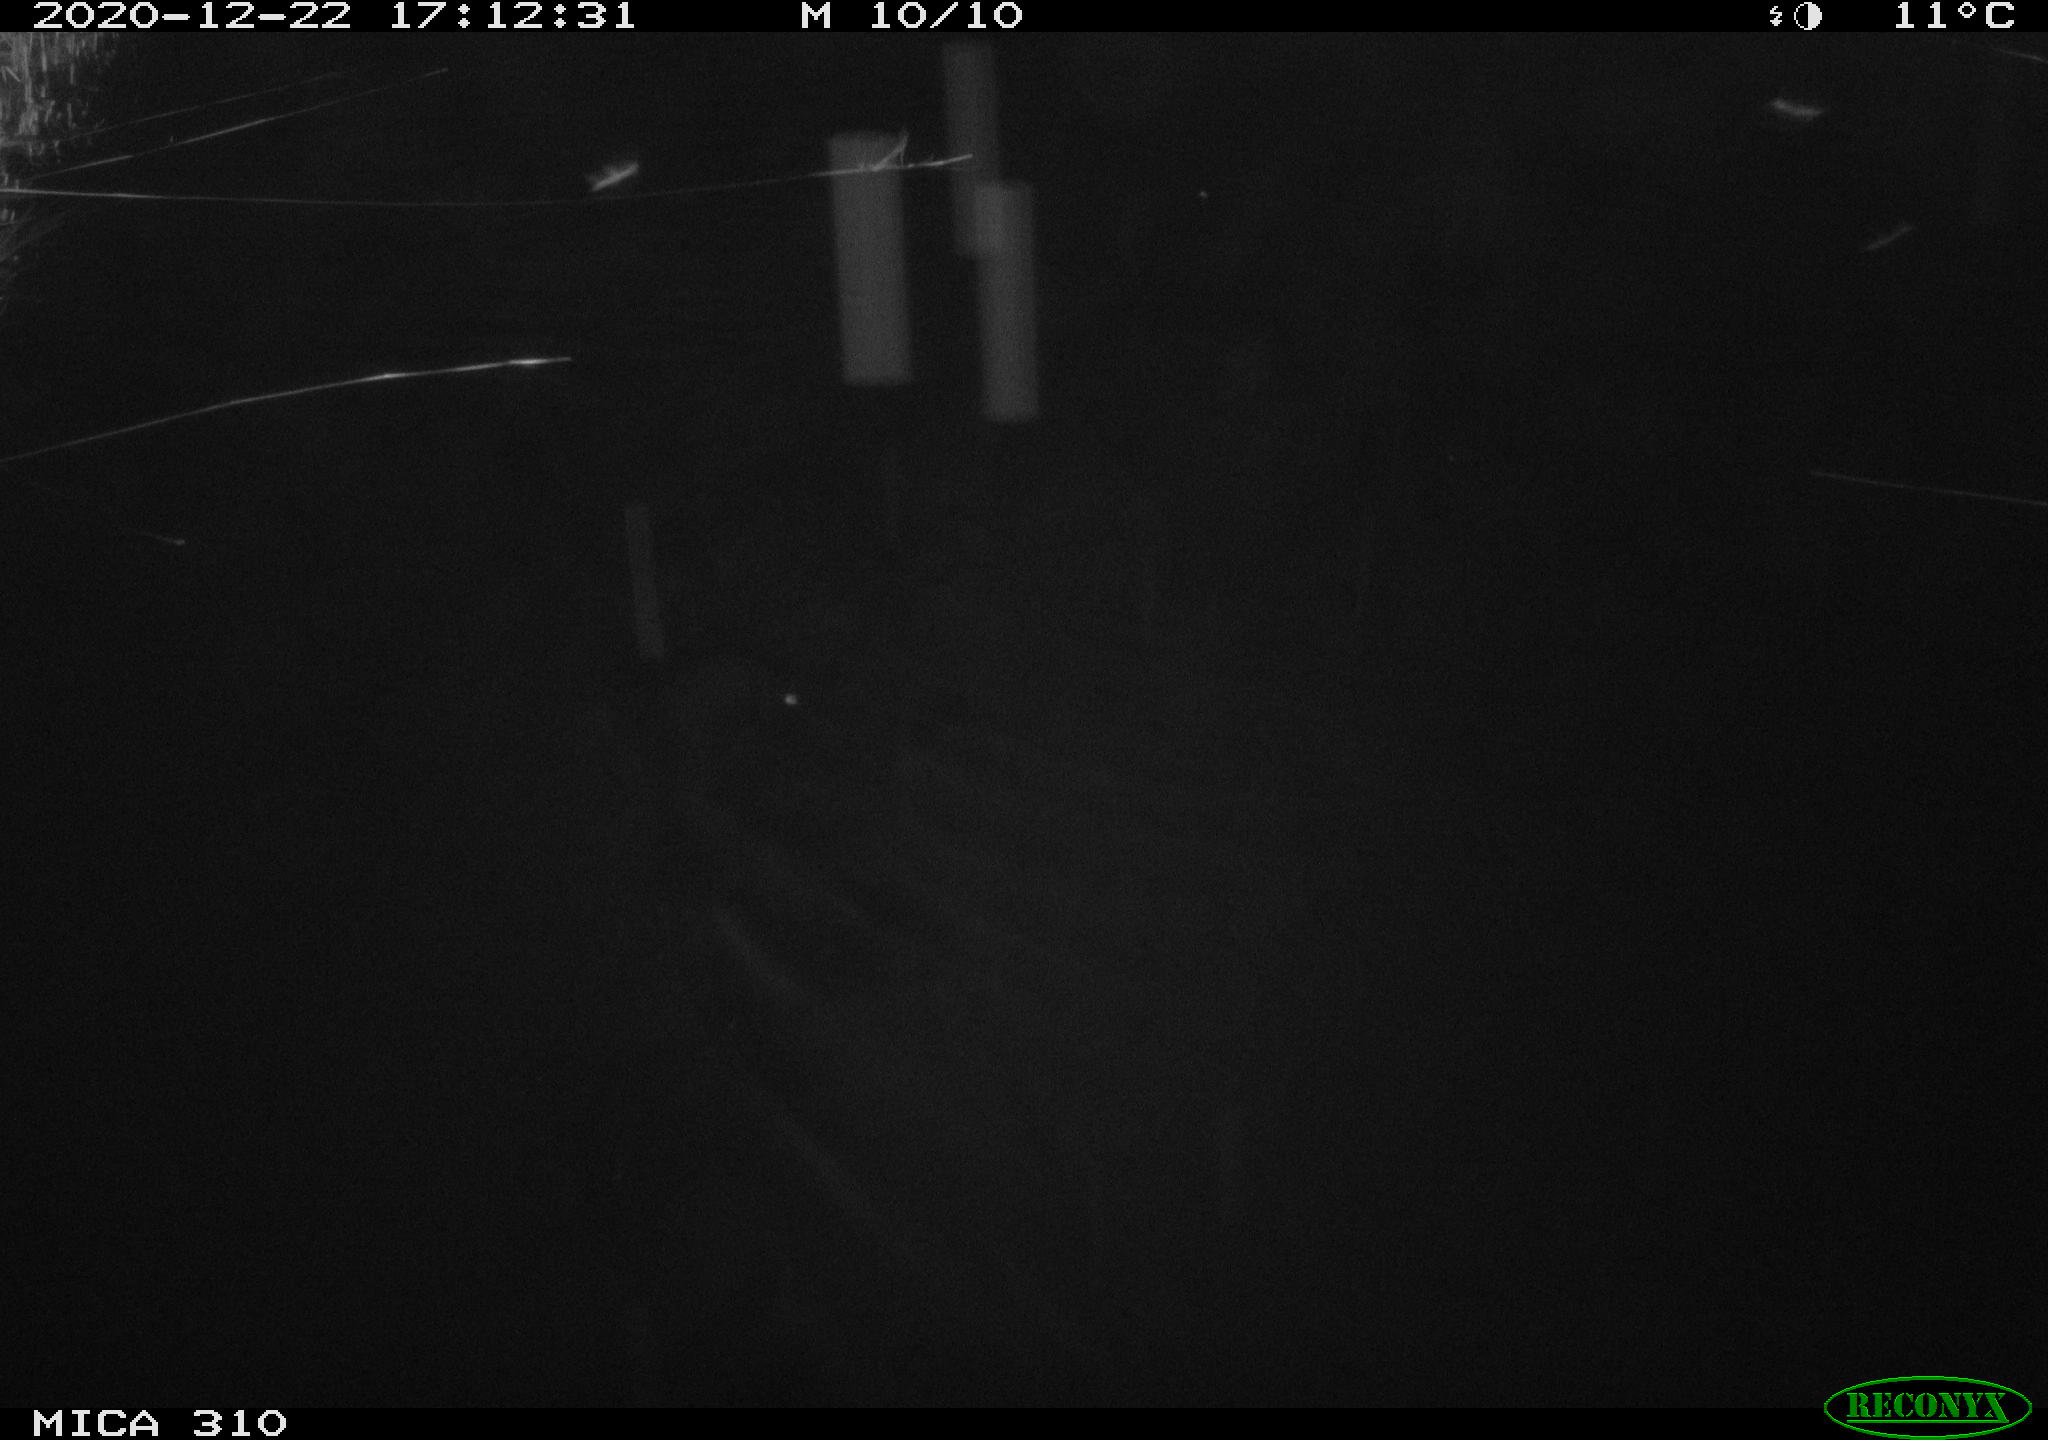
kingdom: Animalia
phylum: Chordata
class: Aves
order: Gruiformes
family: Rallidae
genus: Gallinula
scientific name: Gallinula chloropus
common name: Common moorhen
